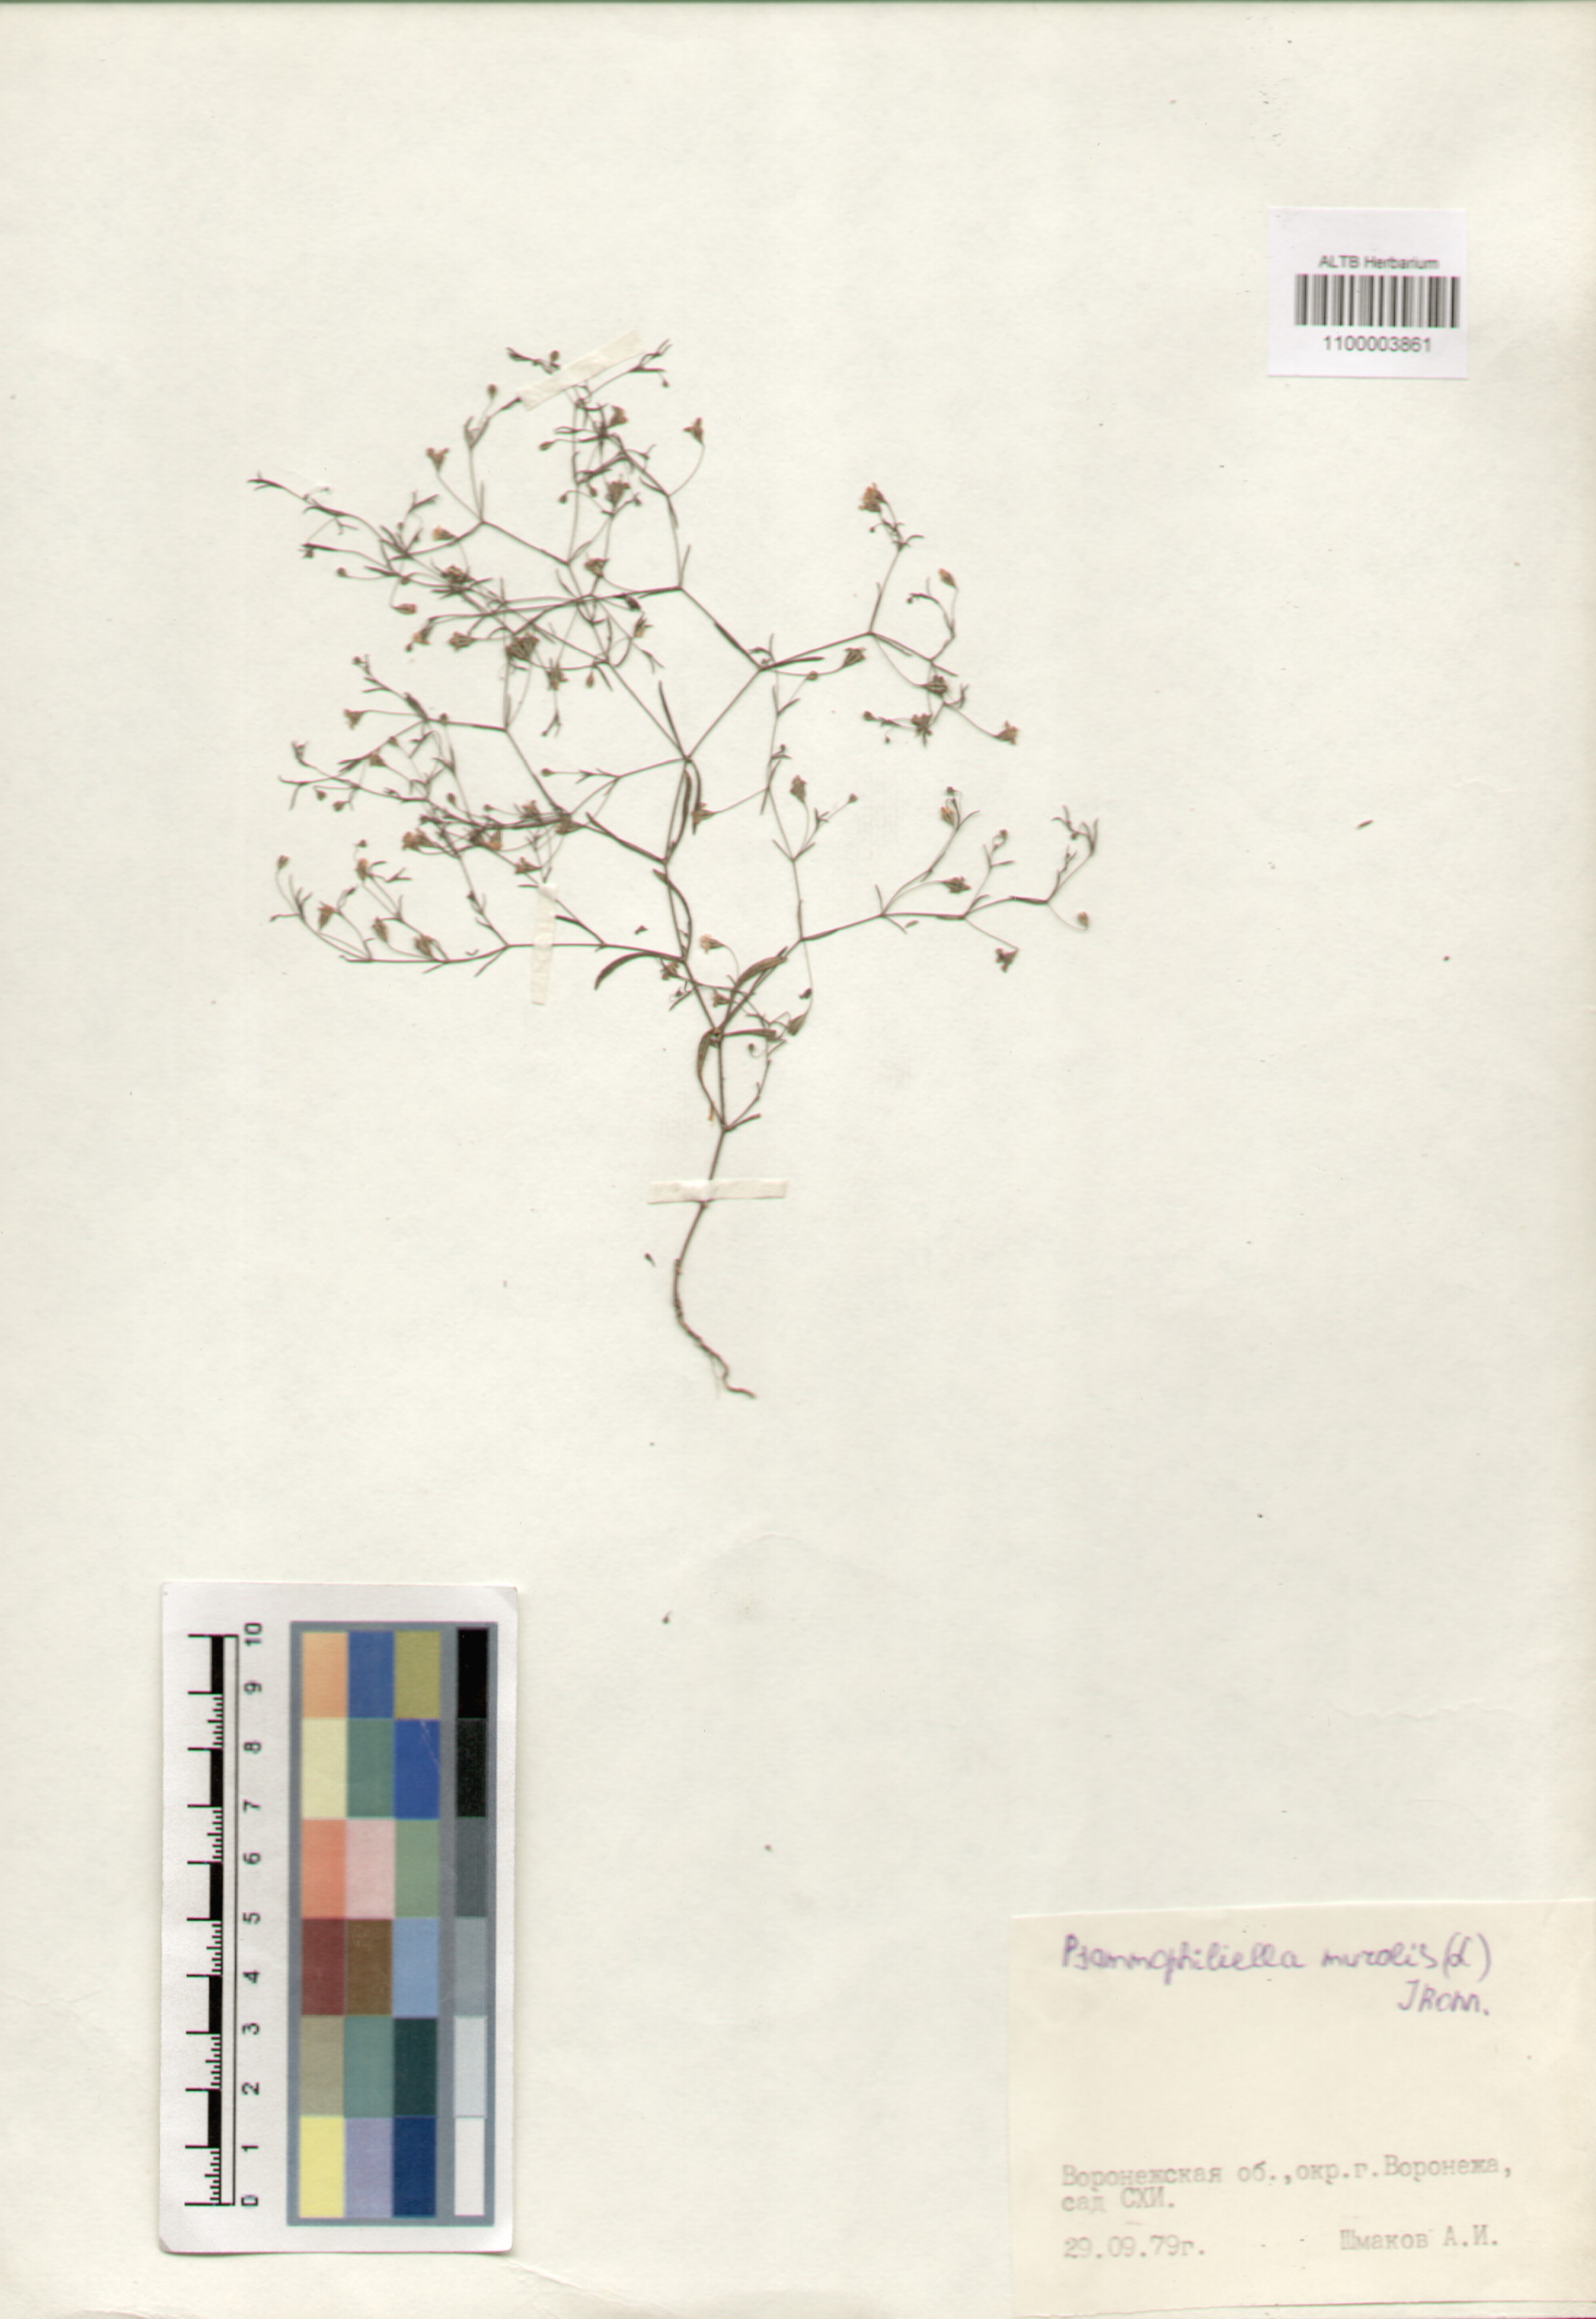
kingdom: Plantae
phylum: Tracheophyta
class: Magnoliopsida
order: Caryophyllales
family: Caryophyllaceae
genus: Psammophiliella
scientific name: Psammophiliella muralis
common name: Cushion baby's-breath
